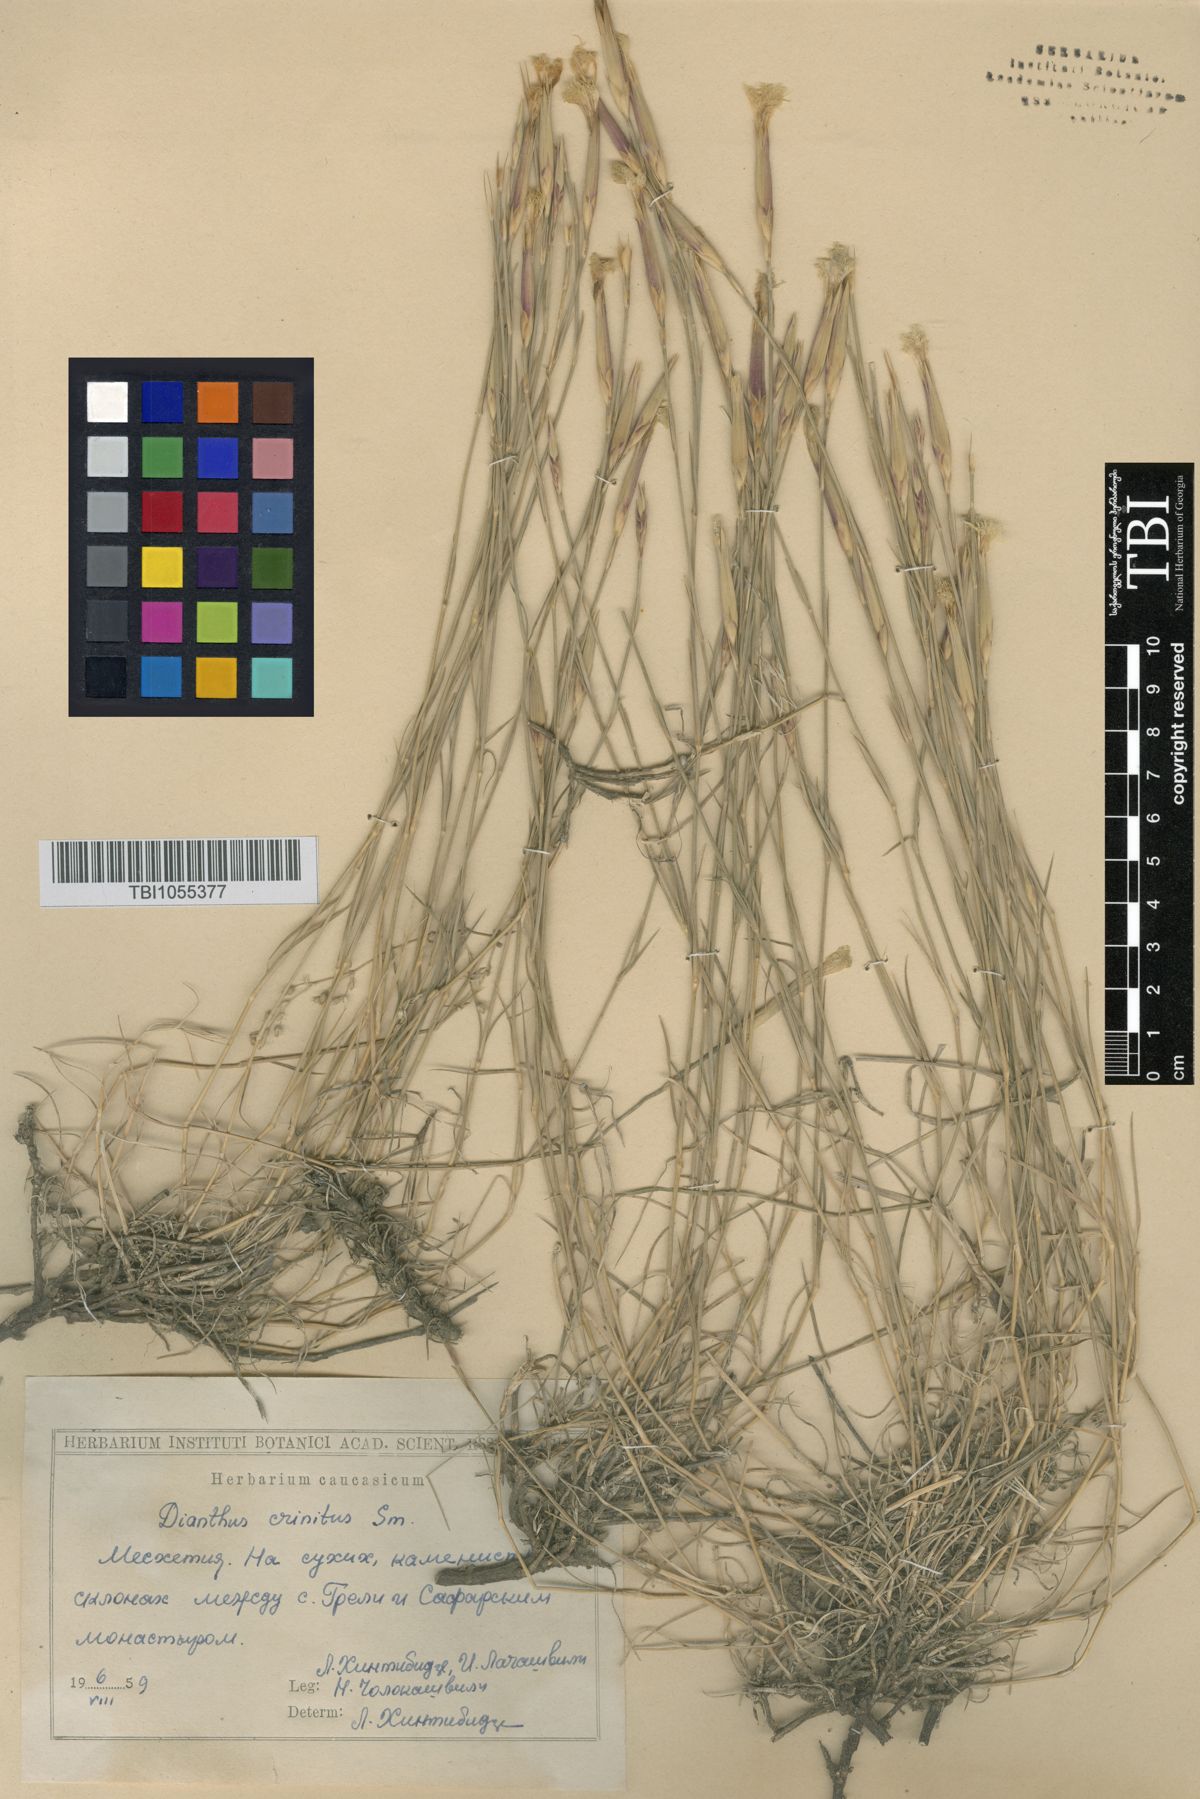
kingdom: Plantae
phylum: Tracheophyta
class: Magnoliopsida
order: Caryophyllales
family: Caryophyllaceae
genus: Dianthus
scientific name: Dianthus crinitus
